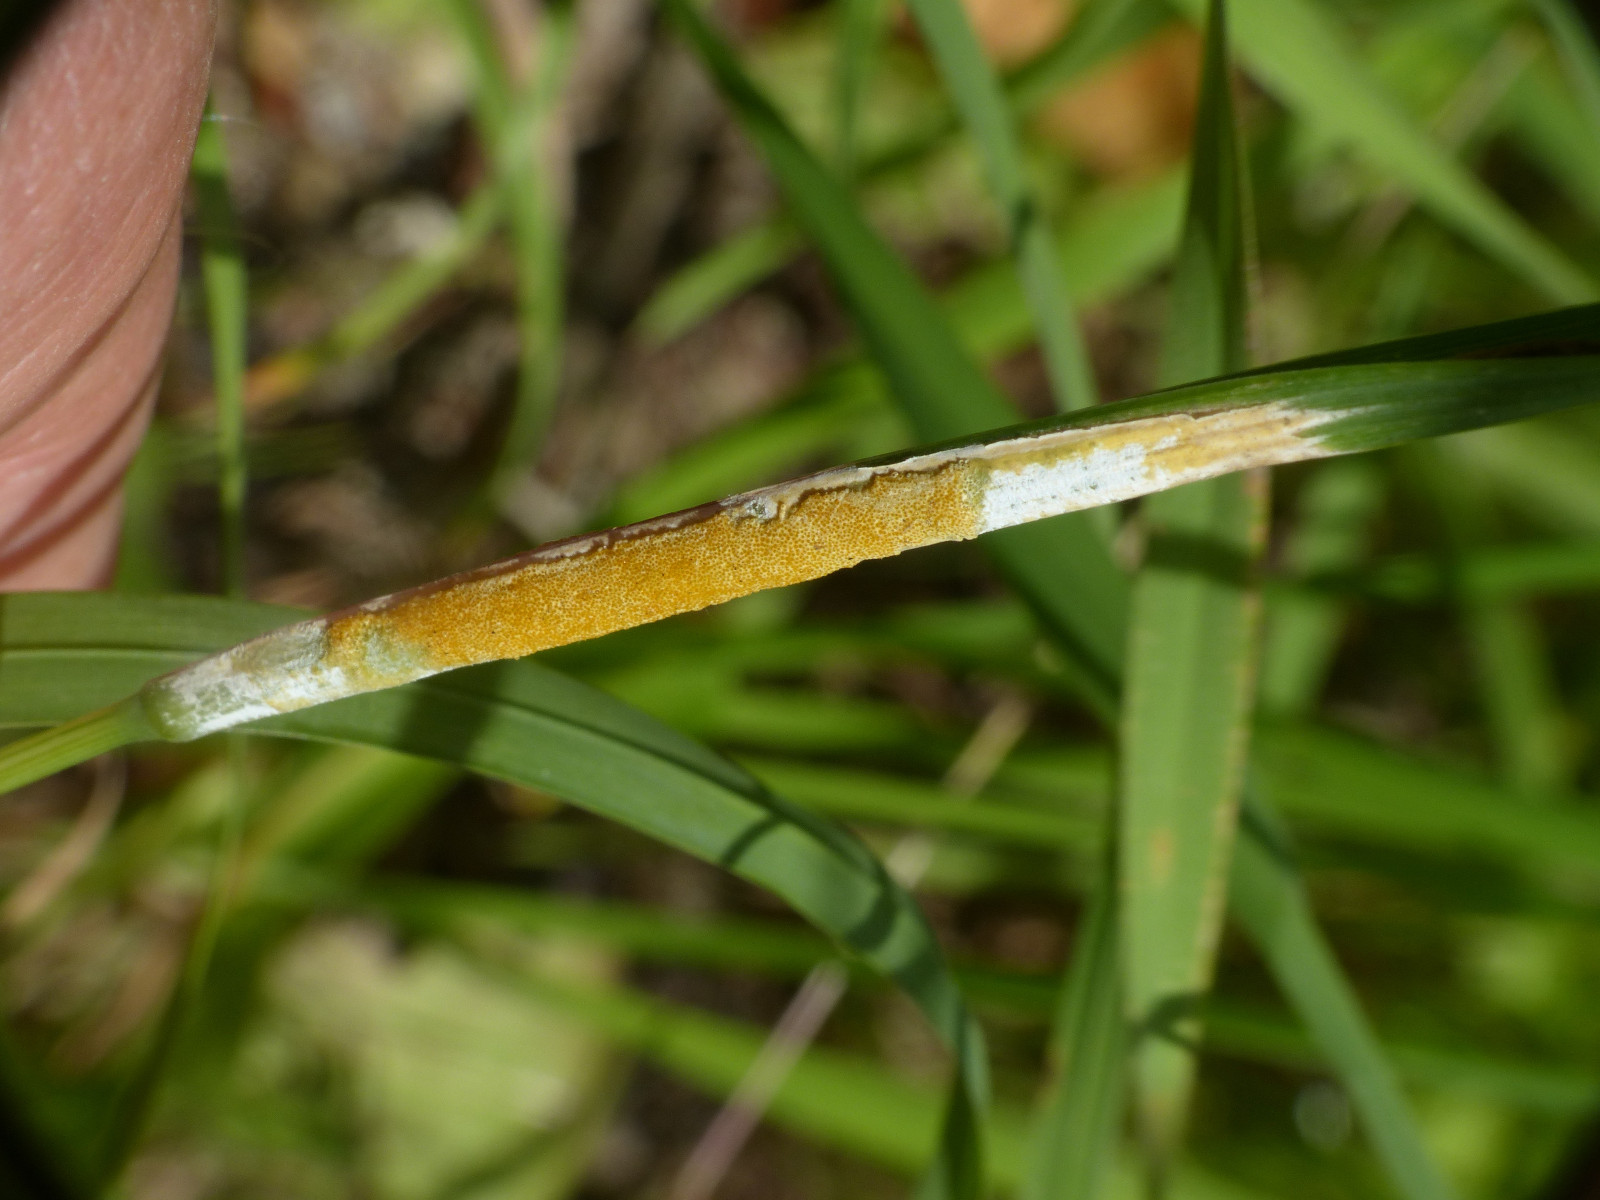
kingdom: Fungi
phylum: Ascomycota
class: Sordariomycetes
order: Hypocreales
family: Clavicipitaceae
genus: Epichloe
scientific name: Epichloe typhina
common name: almindelig kernerør
